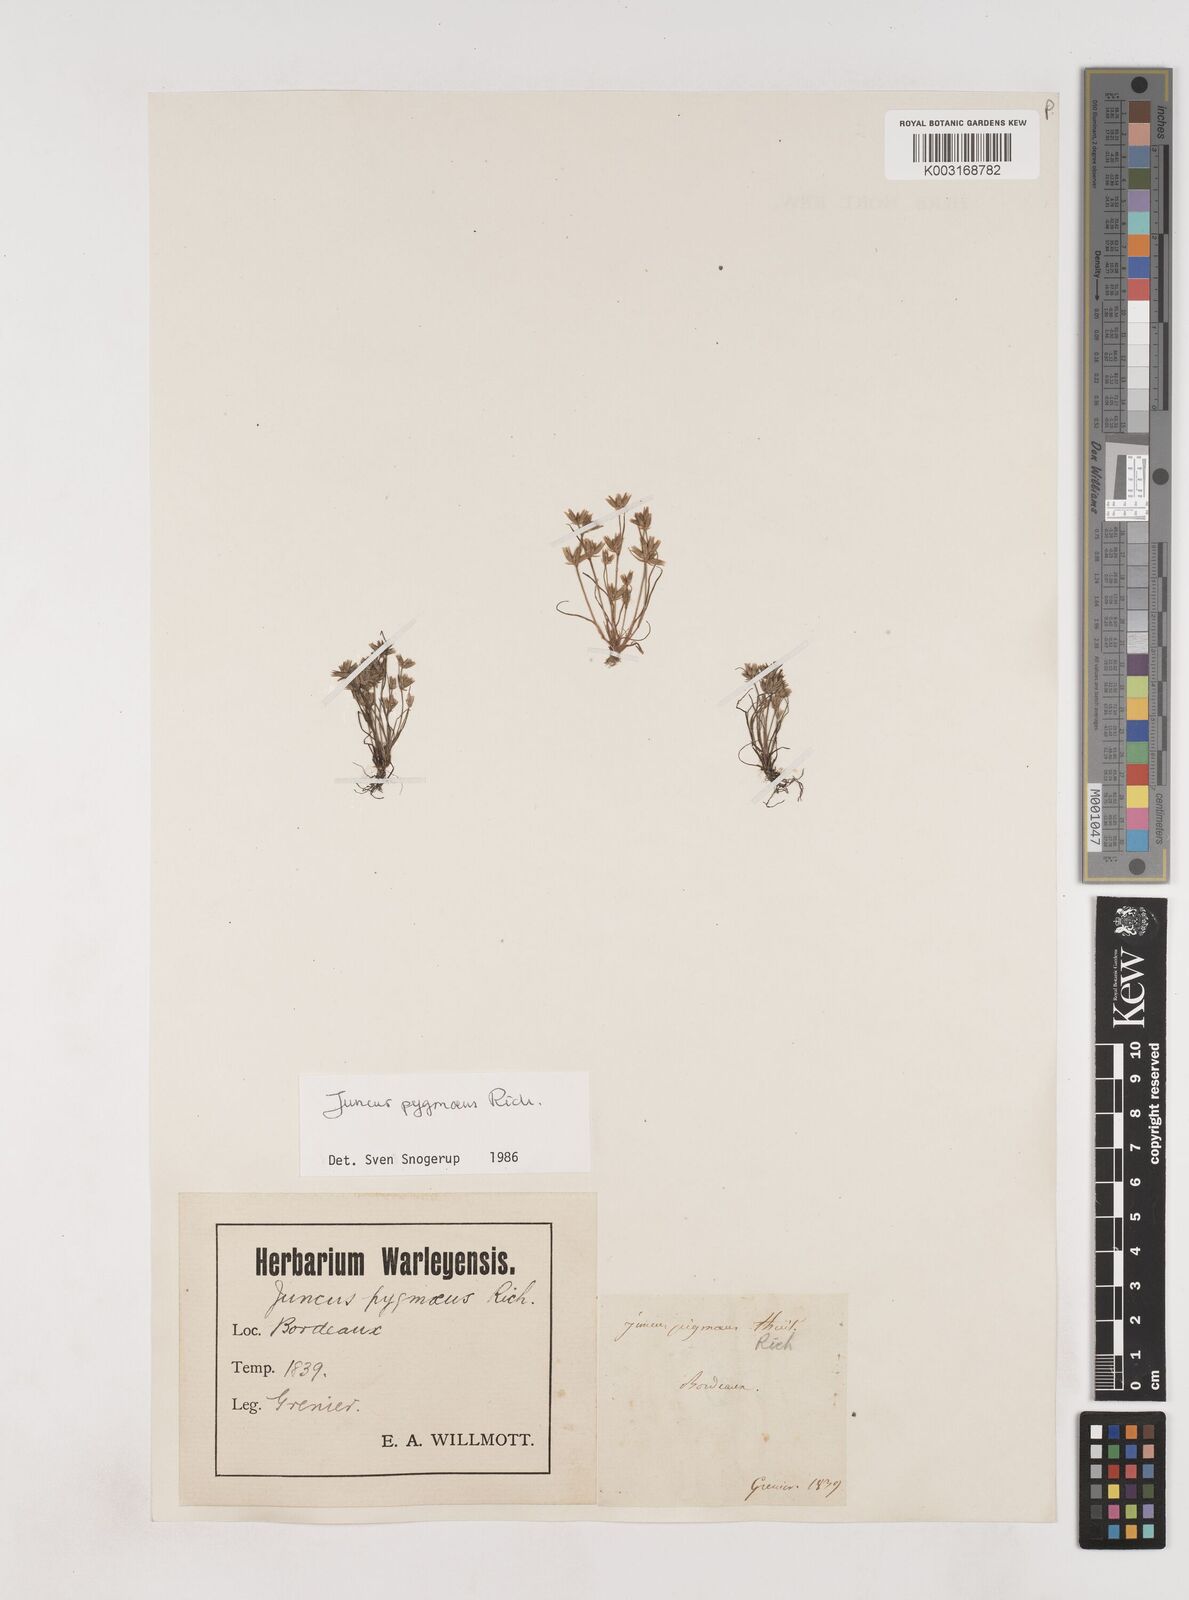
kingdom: Plantae
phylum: Tracheophyta
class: Liliopsida
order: Poales
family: Juncaceae
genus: Juncus
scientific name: Juncus pygmaeus
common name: Pigmy rush
